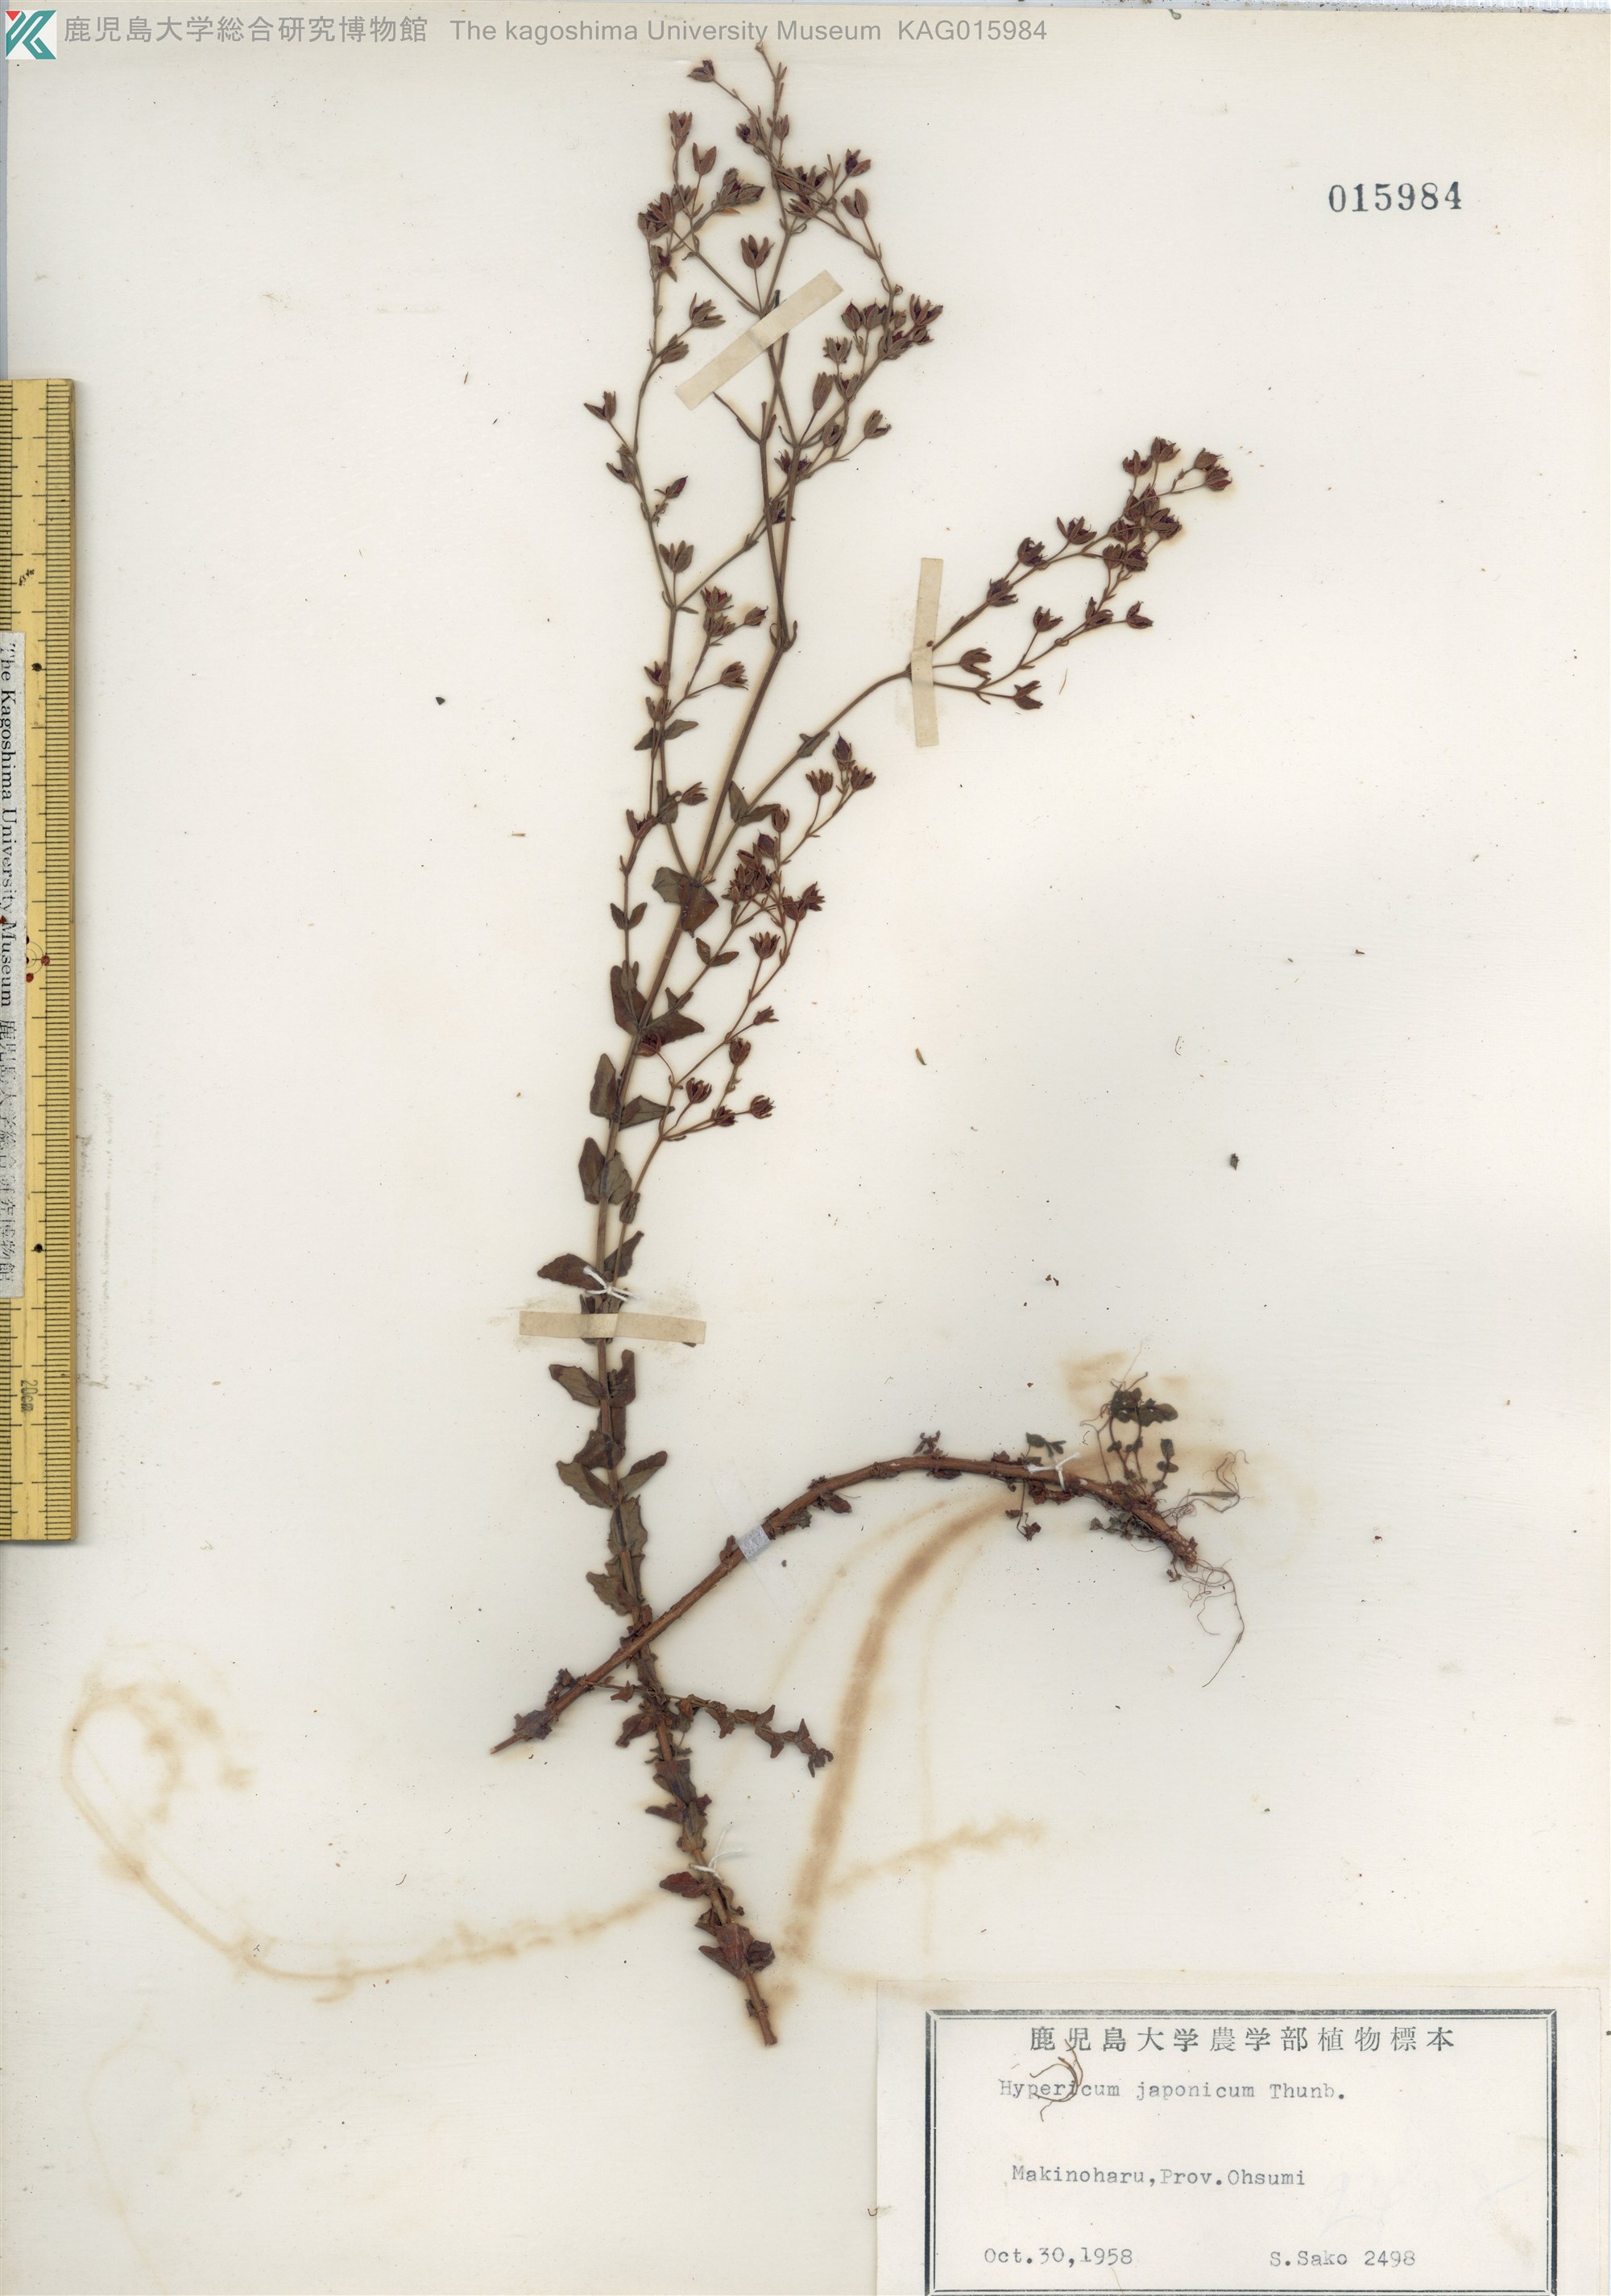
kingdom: Plantae
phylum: Tracheophyta
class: Magnoliopsida
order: Malpighiales
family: Hypericaceae
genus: Hypericum
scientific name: Hypericum japonicum
